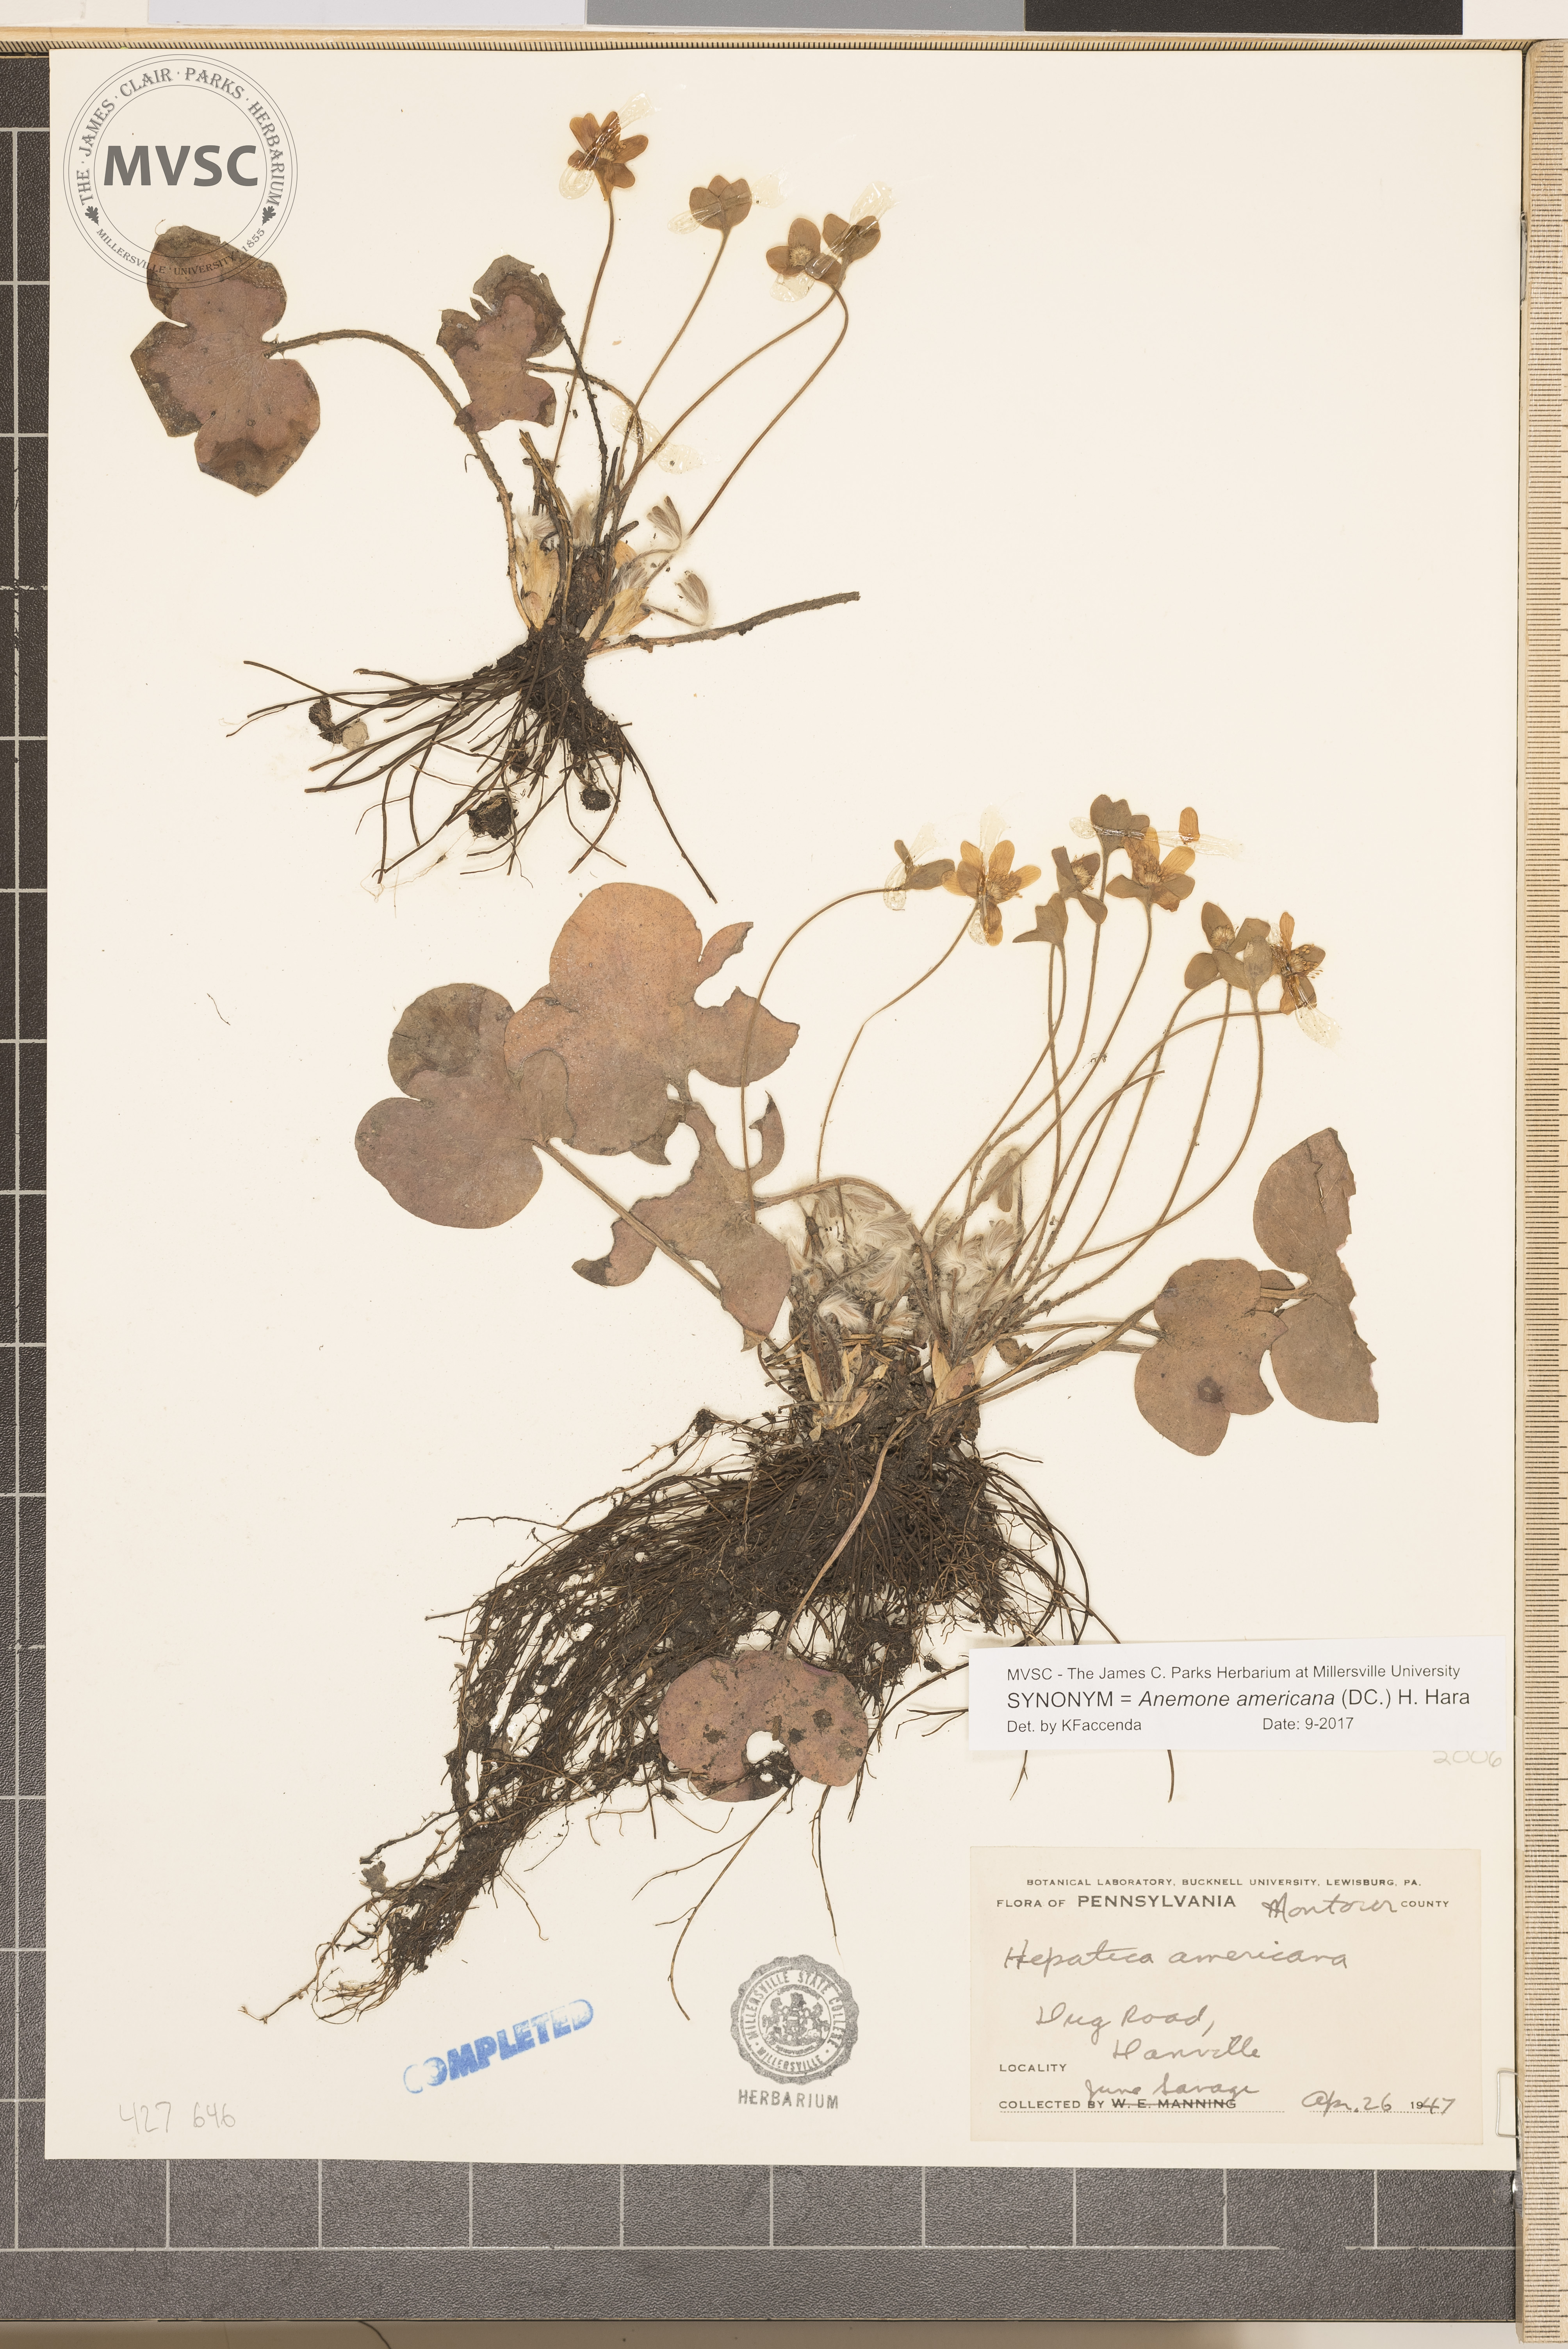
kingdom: Plantae
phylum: Tracheophyta
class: Magnoliopsida
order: Ranunculales
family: Ranunculaceae
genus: Hepatica
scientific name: Hepatica americana
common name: American hepatica
